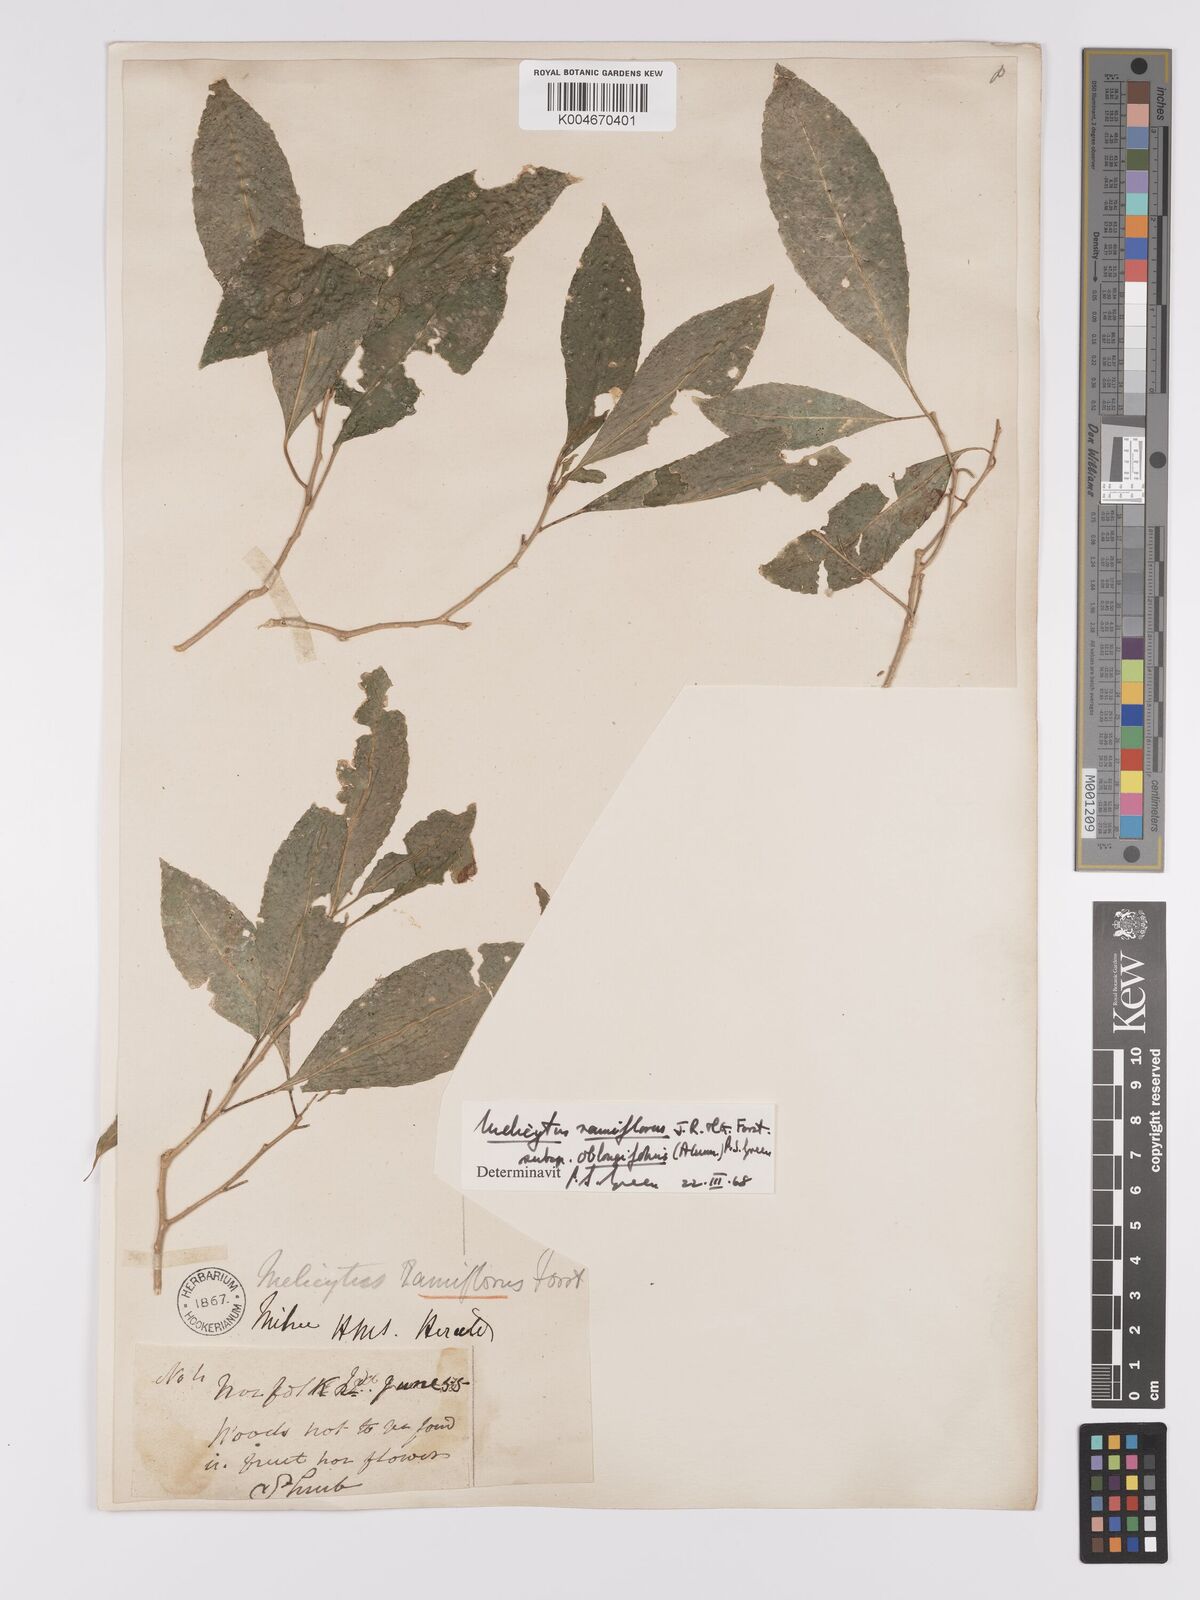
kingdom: Plantae
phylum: Tracheophyta
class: Magnoliopsida
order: Malpighiales
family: Violaceae
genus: Melicytus
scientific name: Melicytus ramiflorus
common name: Mahoe
